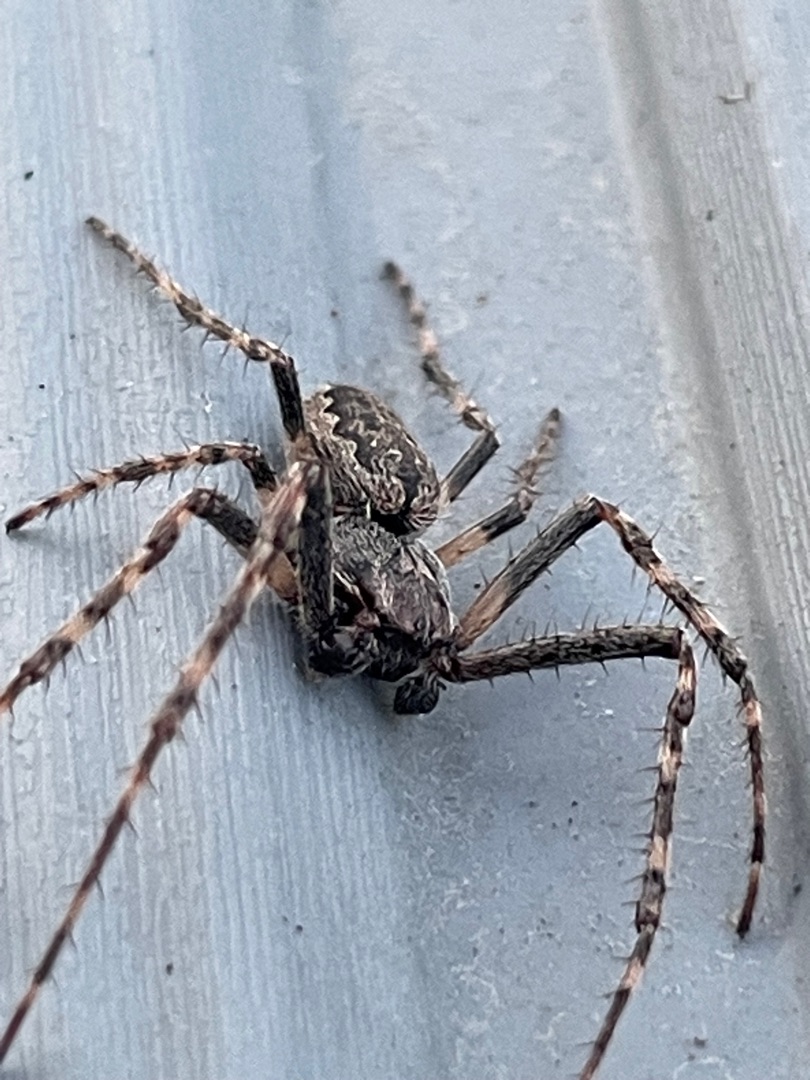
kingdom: Animalia
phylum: Arthropoda
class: Arachnida
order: Araneae
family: Araneidae
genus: Nuctenea
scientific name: Nuctenea umbratica
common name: Flad hjulspinder
